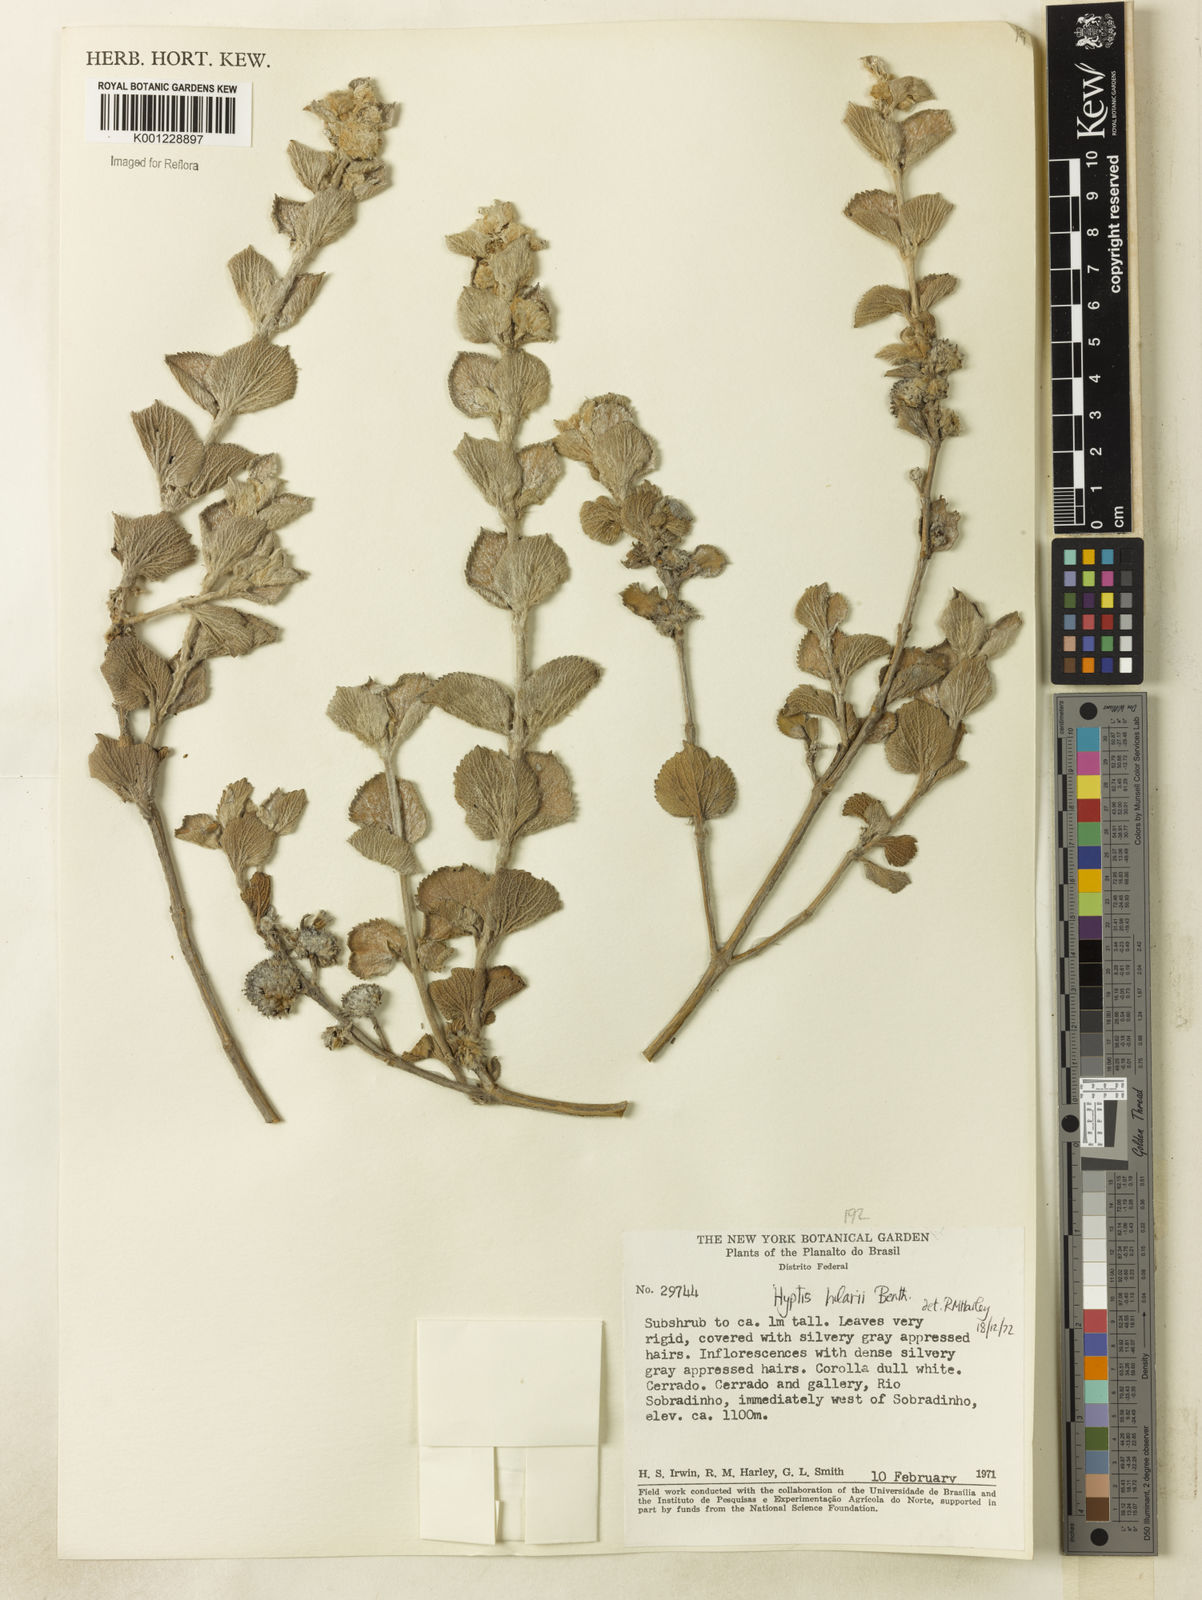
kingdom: Plantae
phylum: Tracheophyta
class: Magnoliopsida
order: Lamiales
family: Lamiaceae
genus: Hyptis
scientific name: Hyptis hilarii
